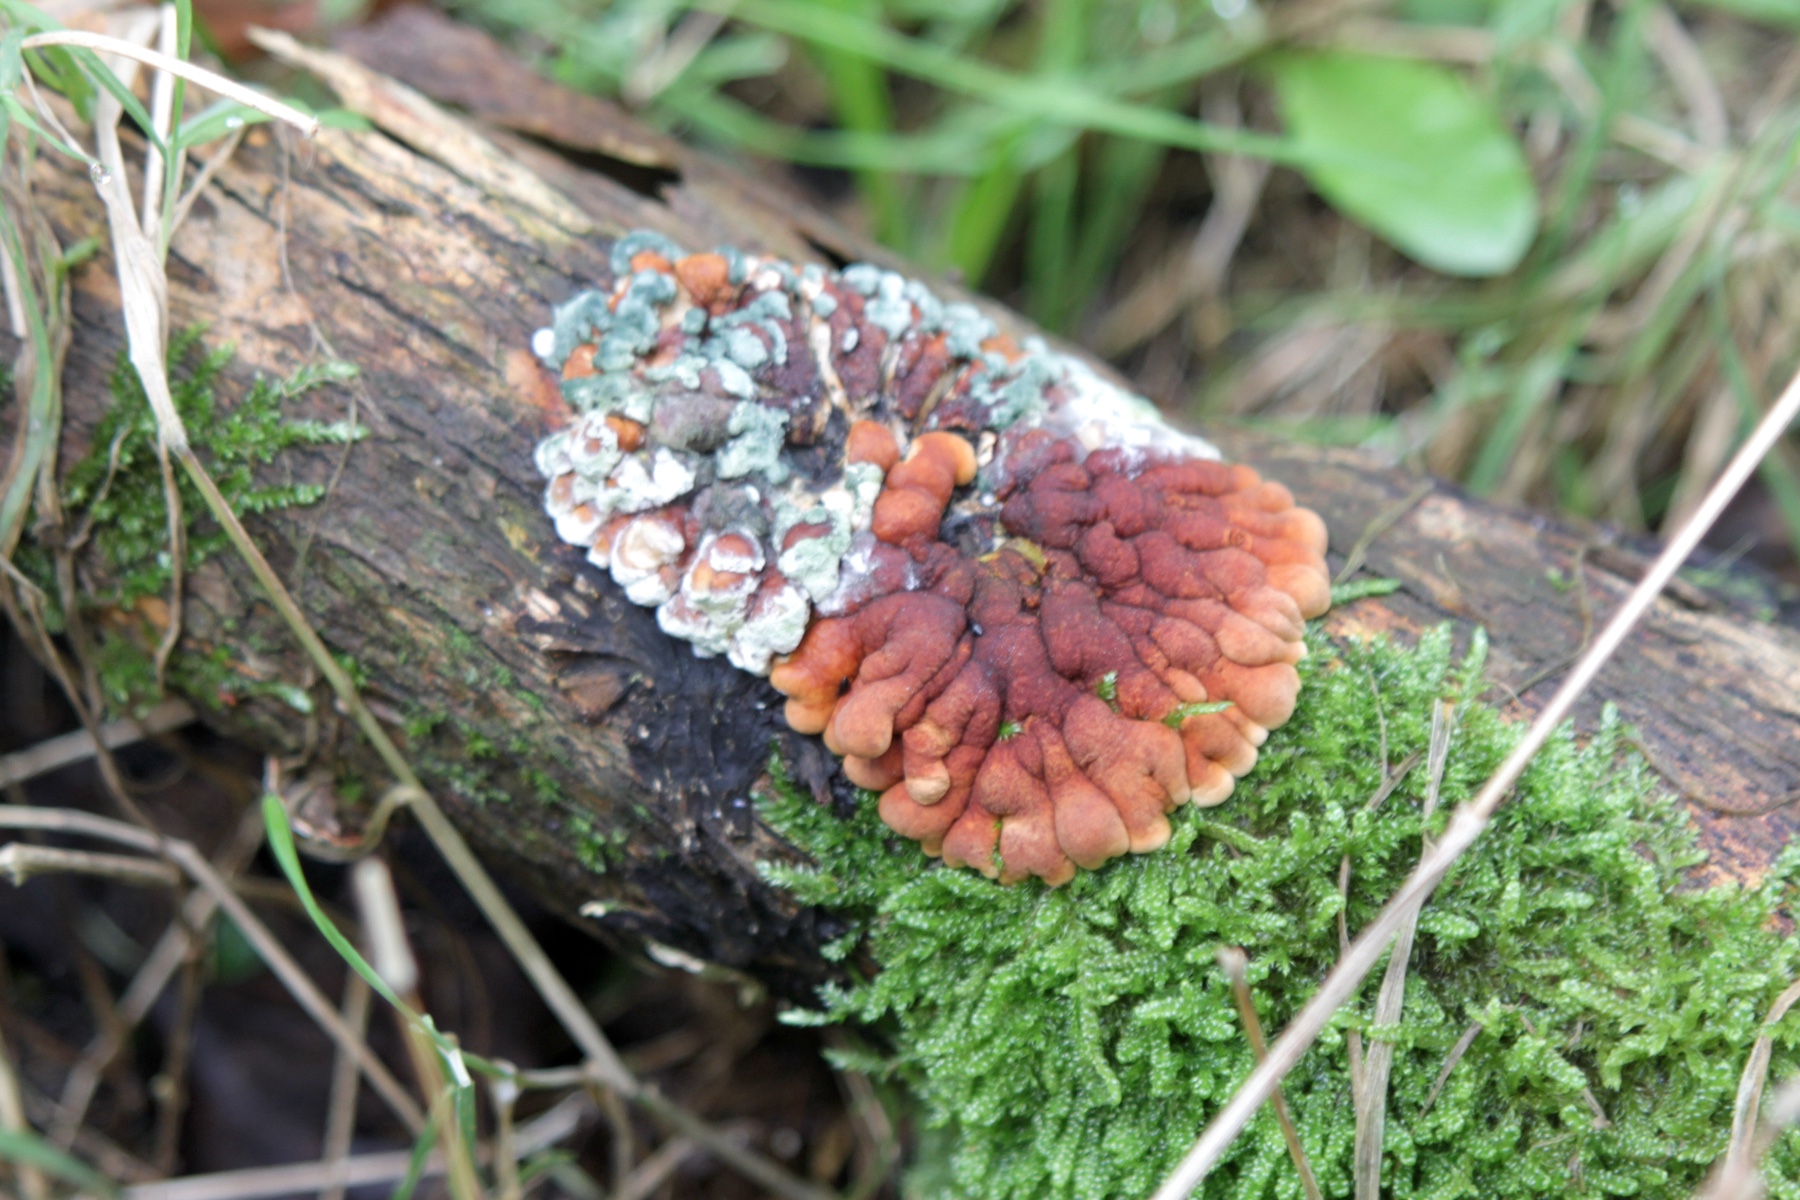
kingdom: Fungi
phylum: Ascomycota
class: Sordariomycetes
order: Hypocreales
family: Hypocreaceae
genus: Hypocreopsis
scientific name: Hypocreopsis lichenoides
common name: pilfinger
